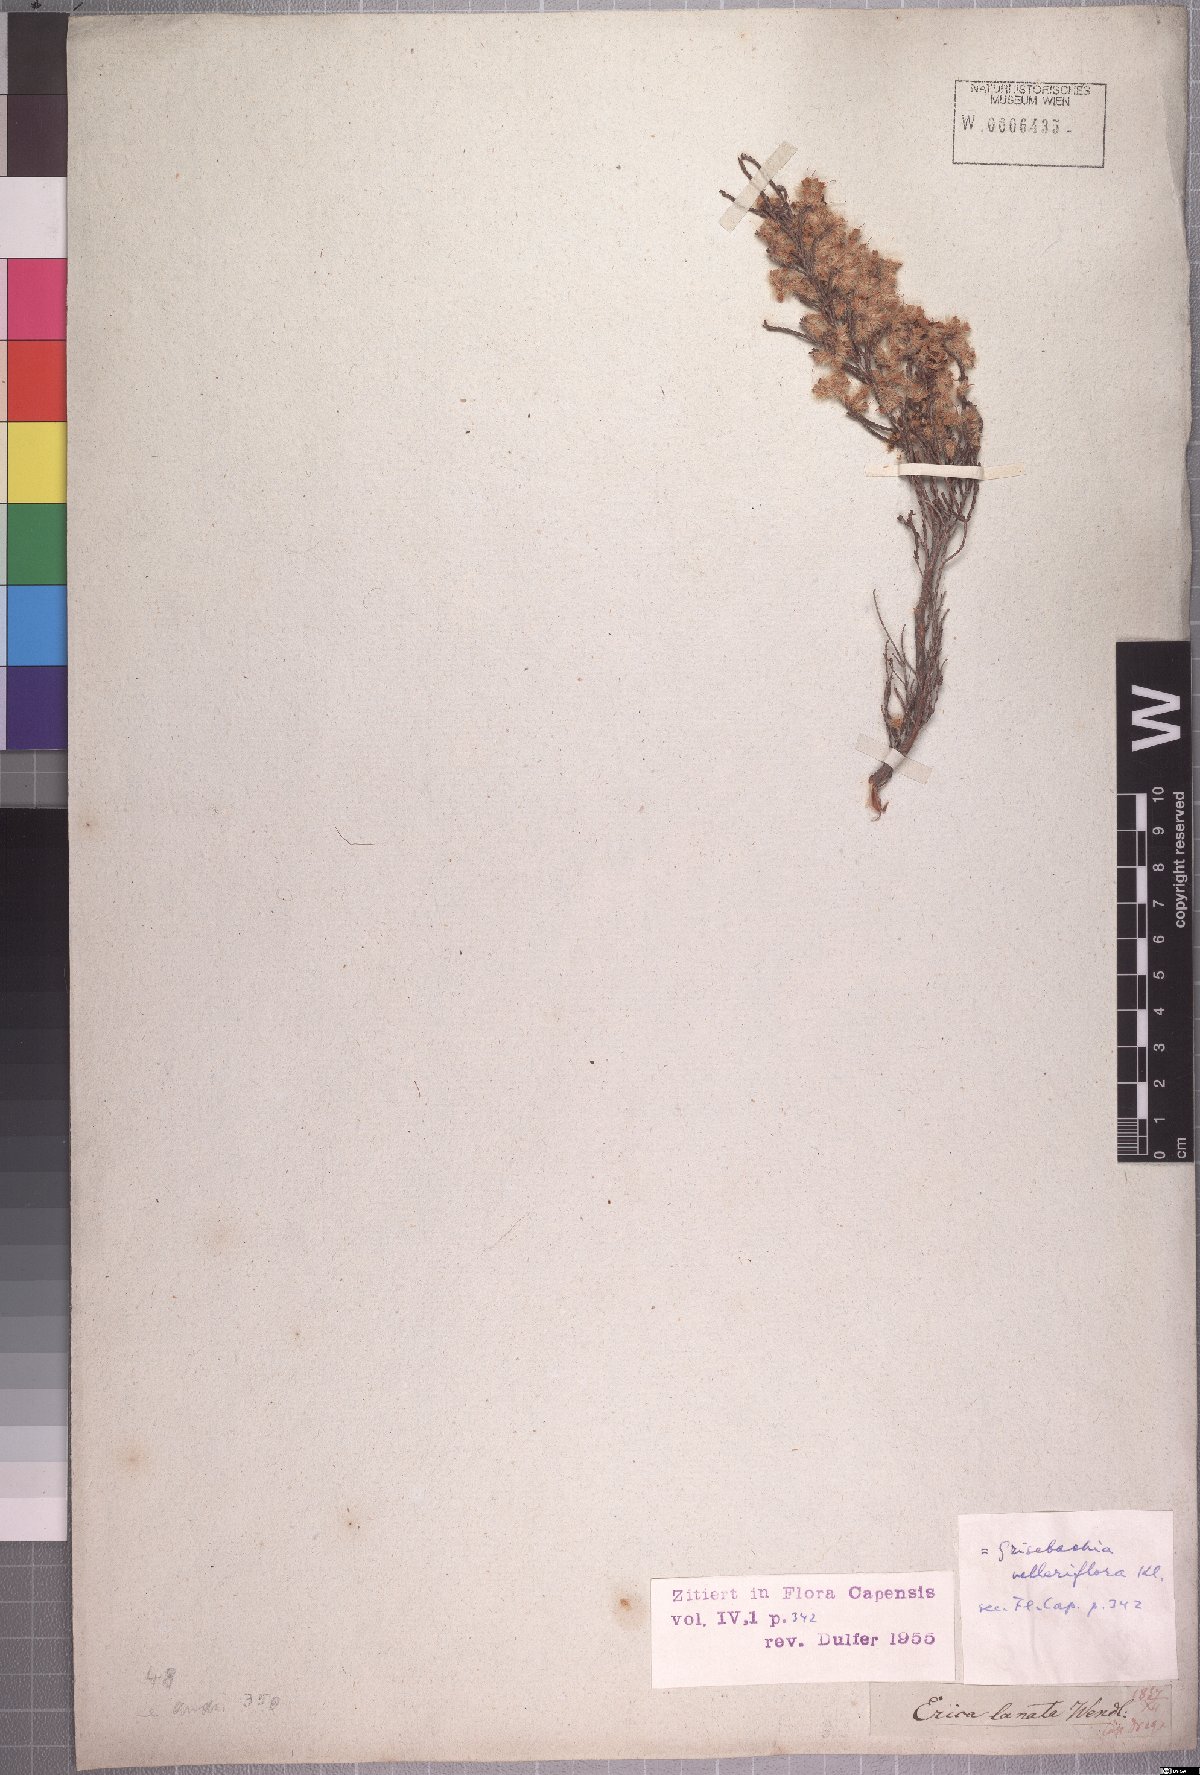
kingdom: Plantae
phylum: Tracheophyta
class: Magnoliopsida
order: Ericales
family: Ericaceae
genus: Erica
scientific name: Erica plumosa
